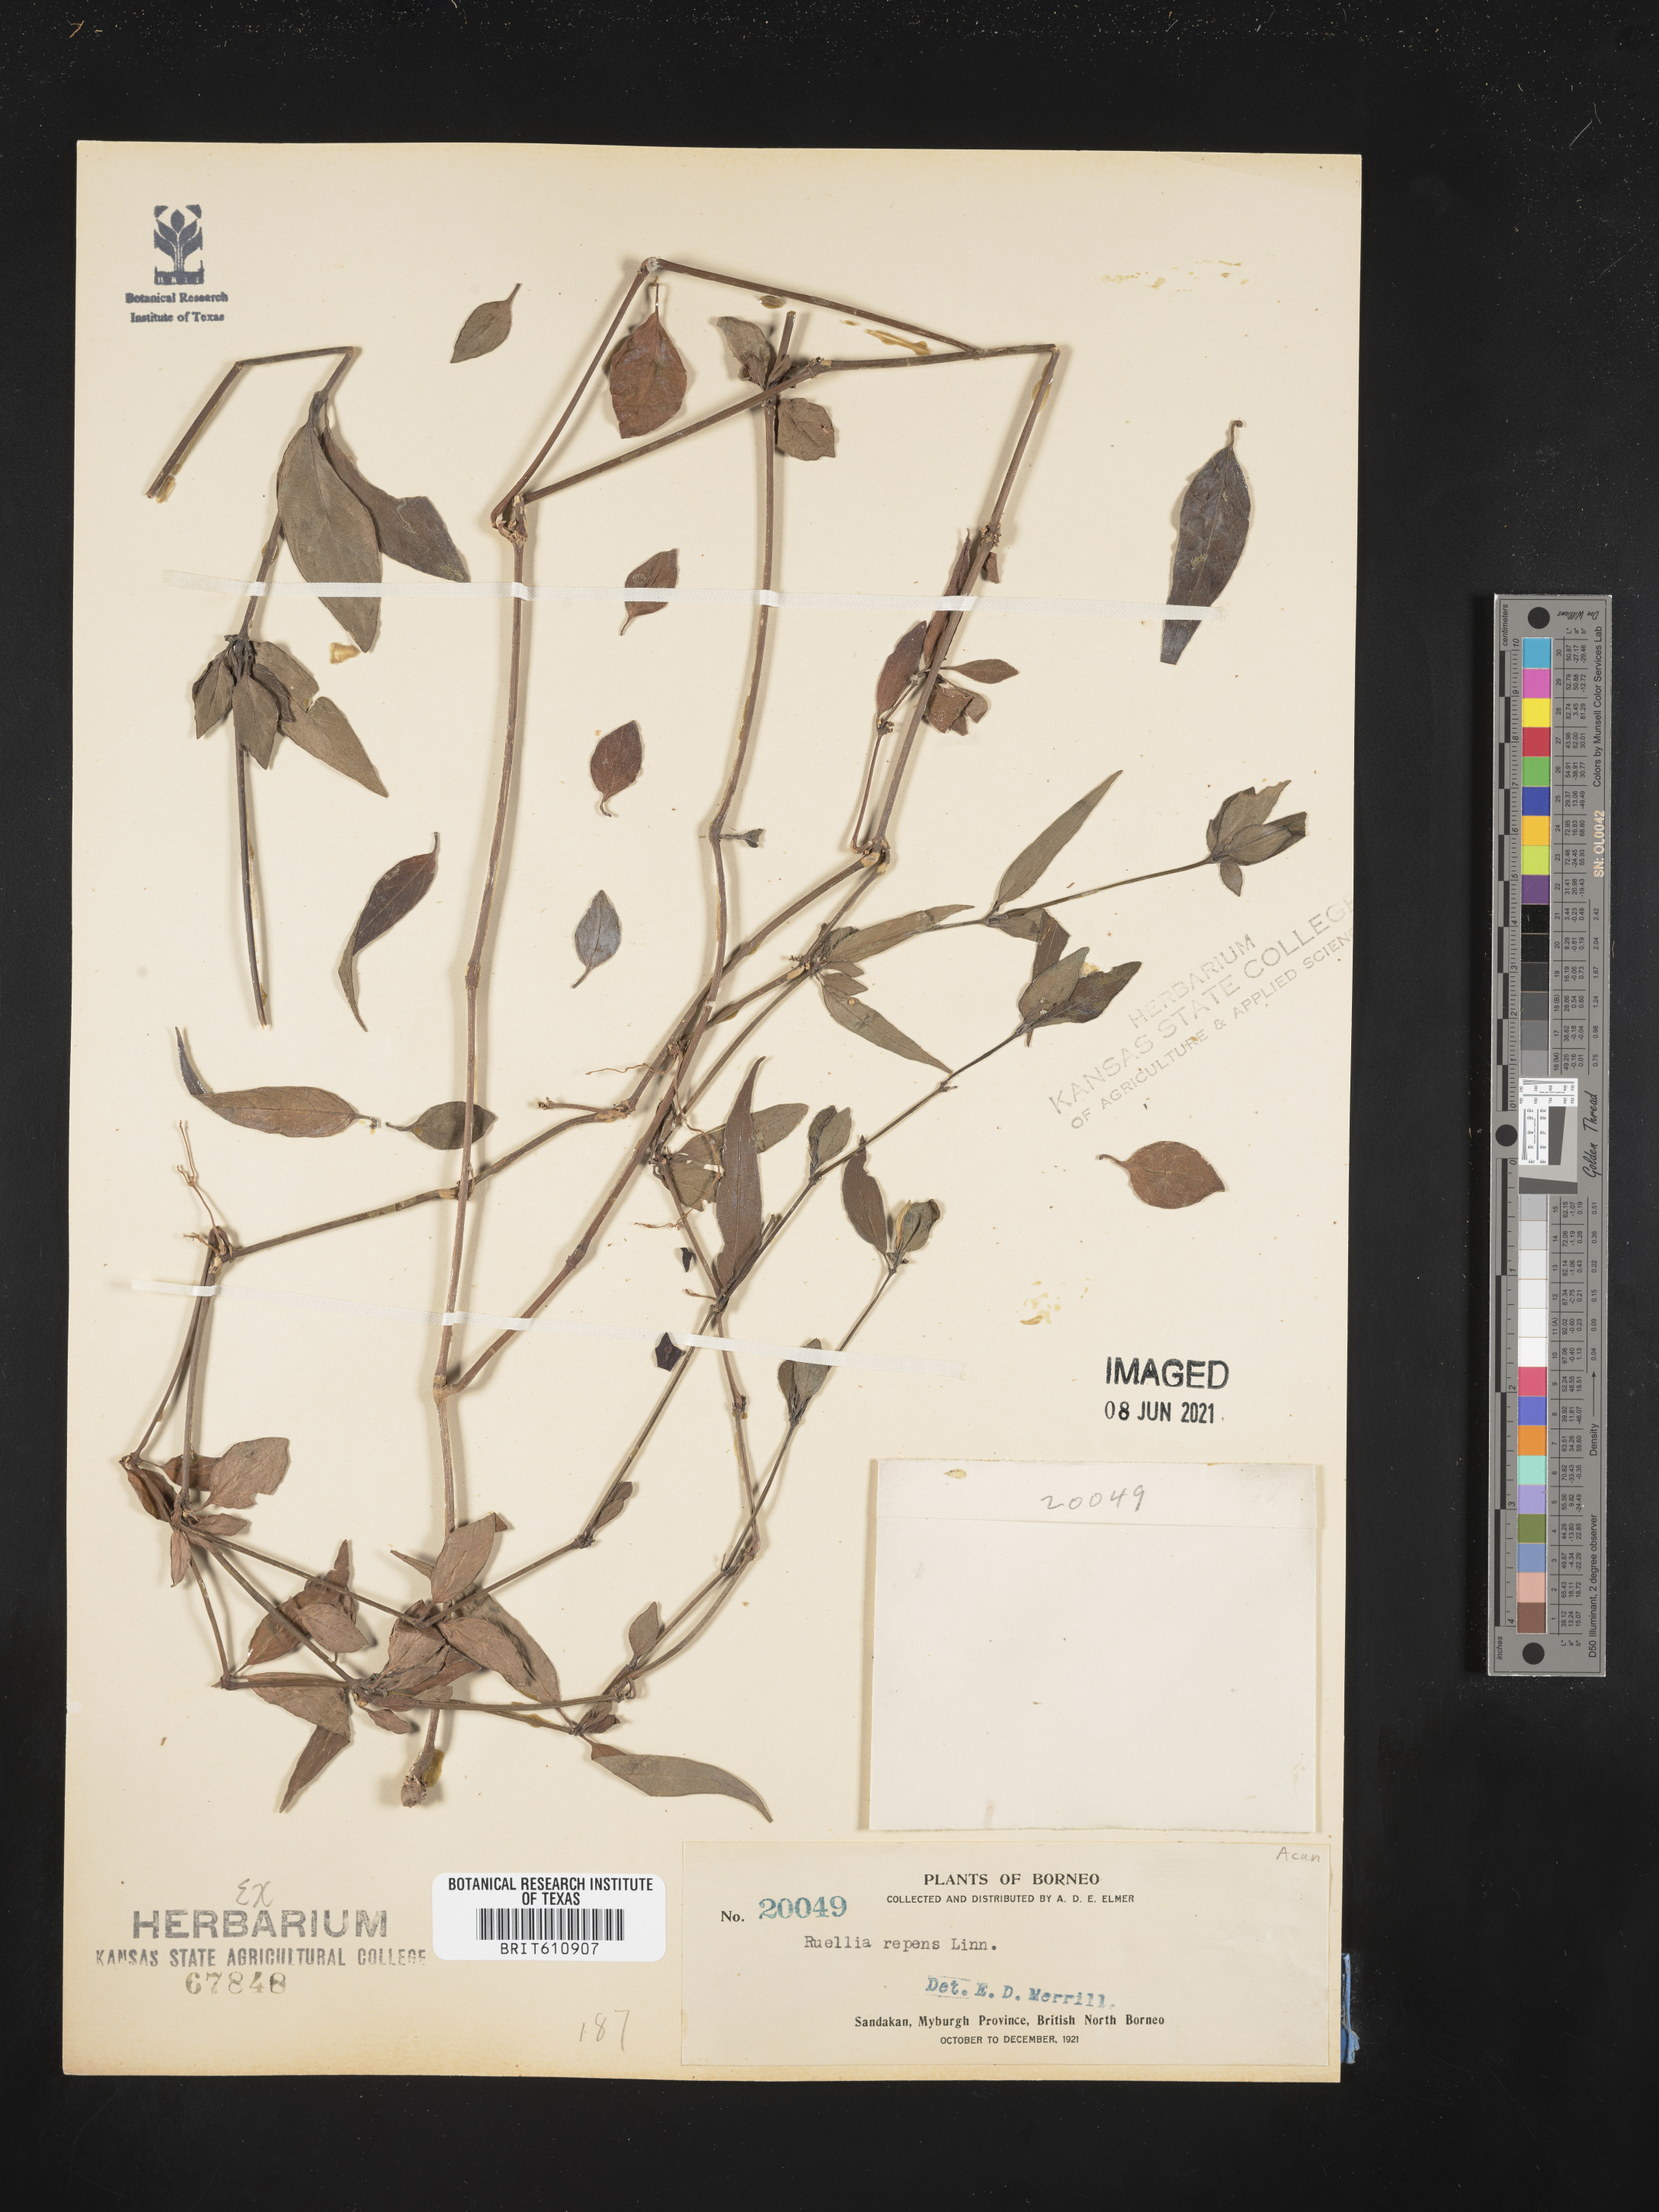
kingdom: Plantae
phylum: Tracheophyta
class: Magnoliopsida
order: Lamiales
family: Acanthaceae
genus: Ruellia
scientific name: Ruellia repens
